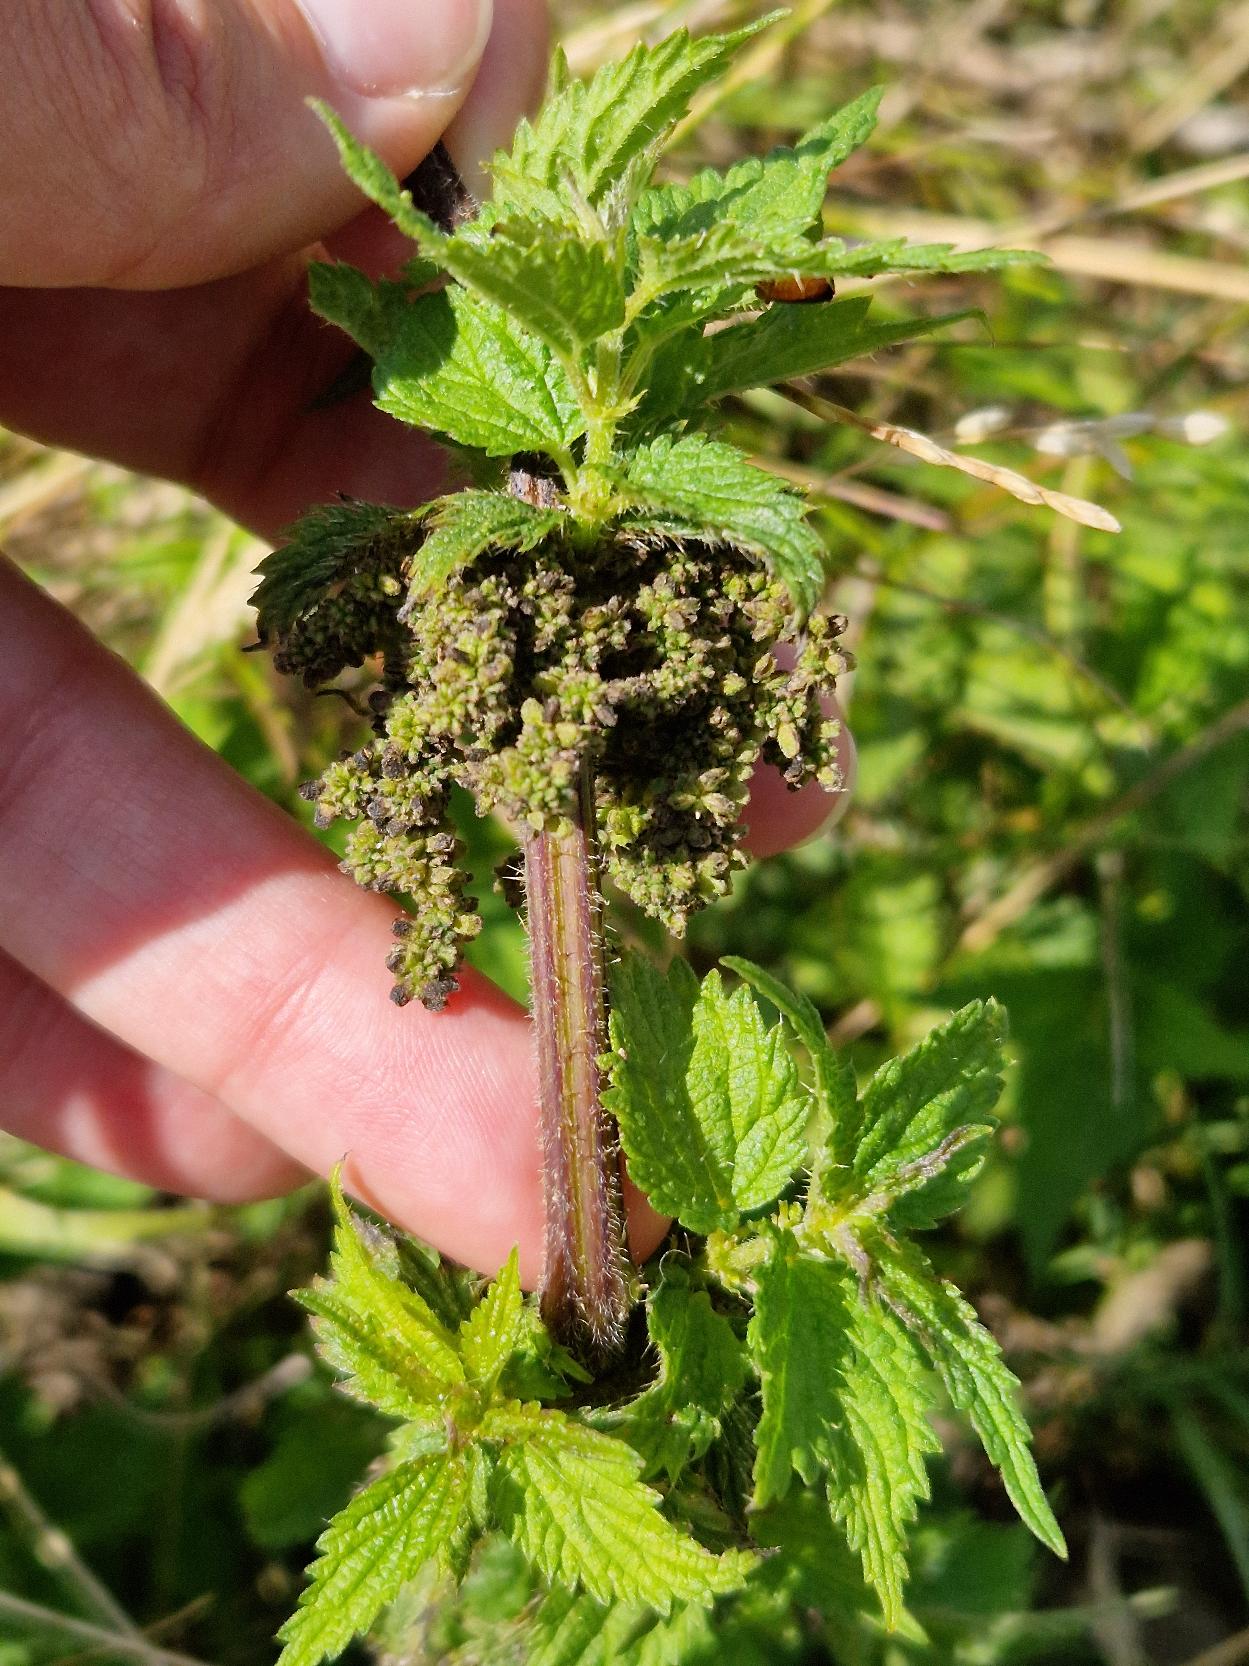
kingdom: Plantae
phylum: Tracheophyta
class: Magnoliopsida
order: Rosales
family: Urticaceae
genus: Urtica
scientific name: Urtica dioica
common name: Stor nælde
